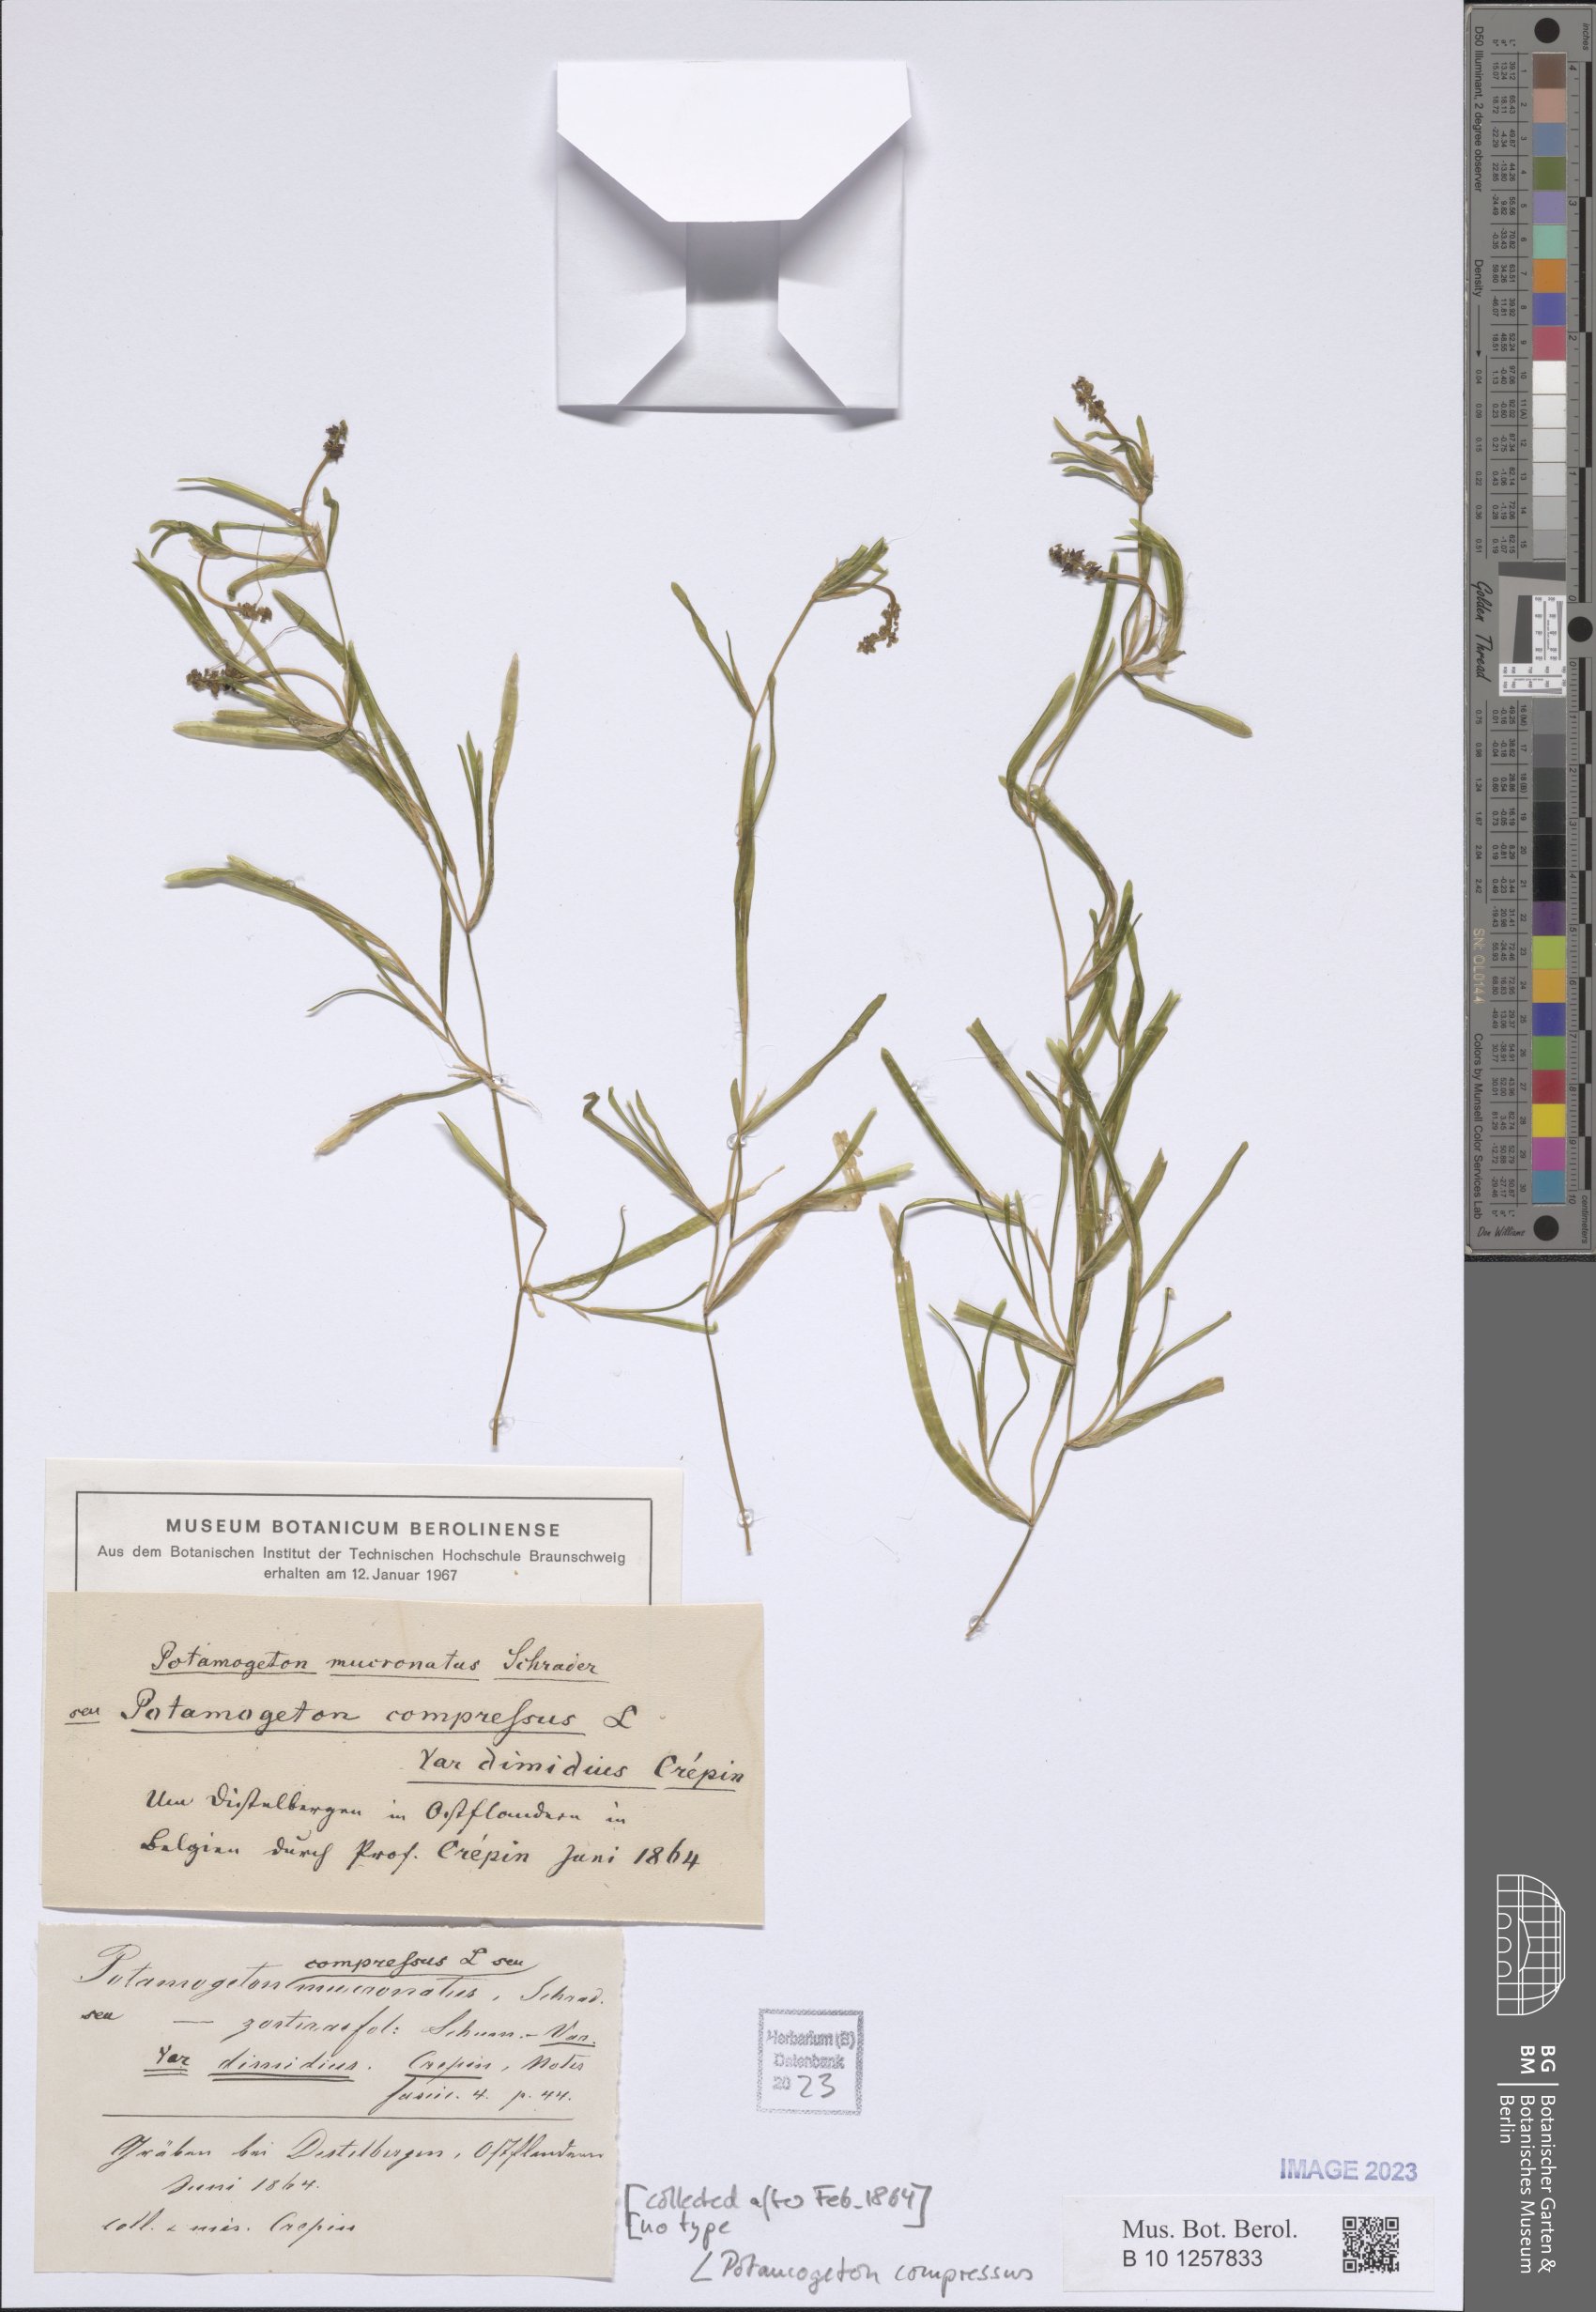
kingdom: Plantae
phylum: Tracheophyta
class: Liliopsida
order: Alismatales
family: Potamogetonaceae
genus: Potamogeton
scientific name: Potamogeton compressus
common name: Grass-wrack pondweed
